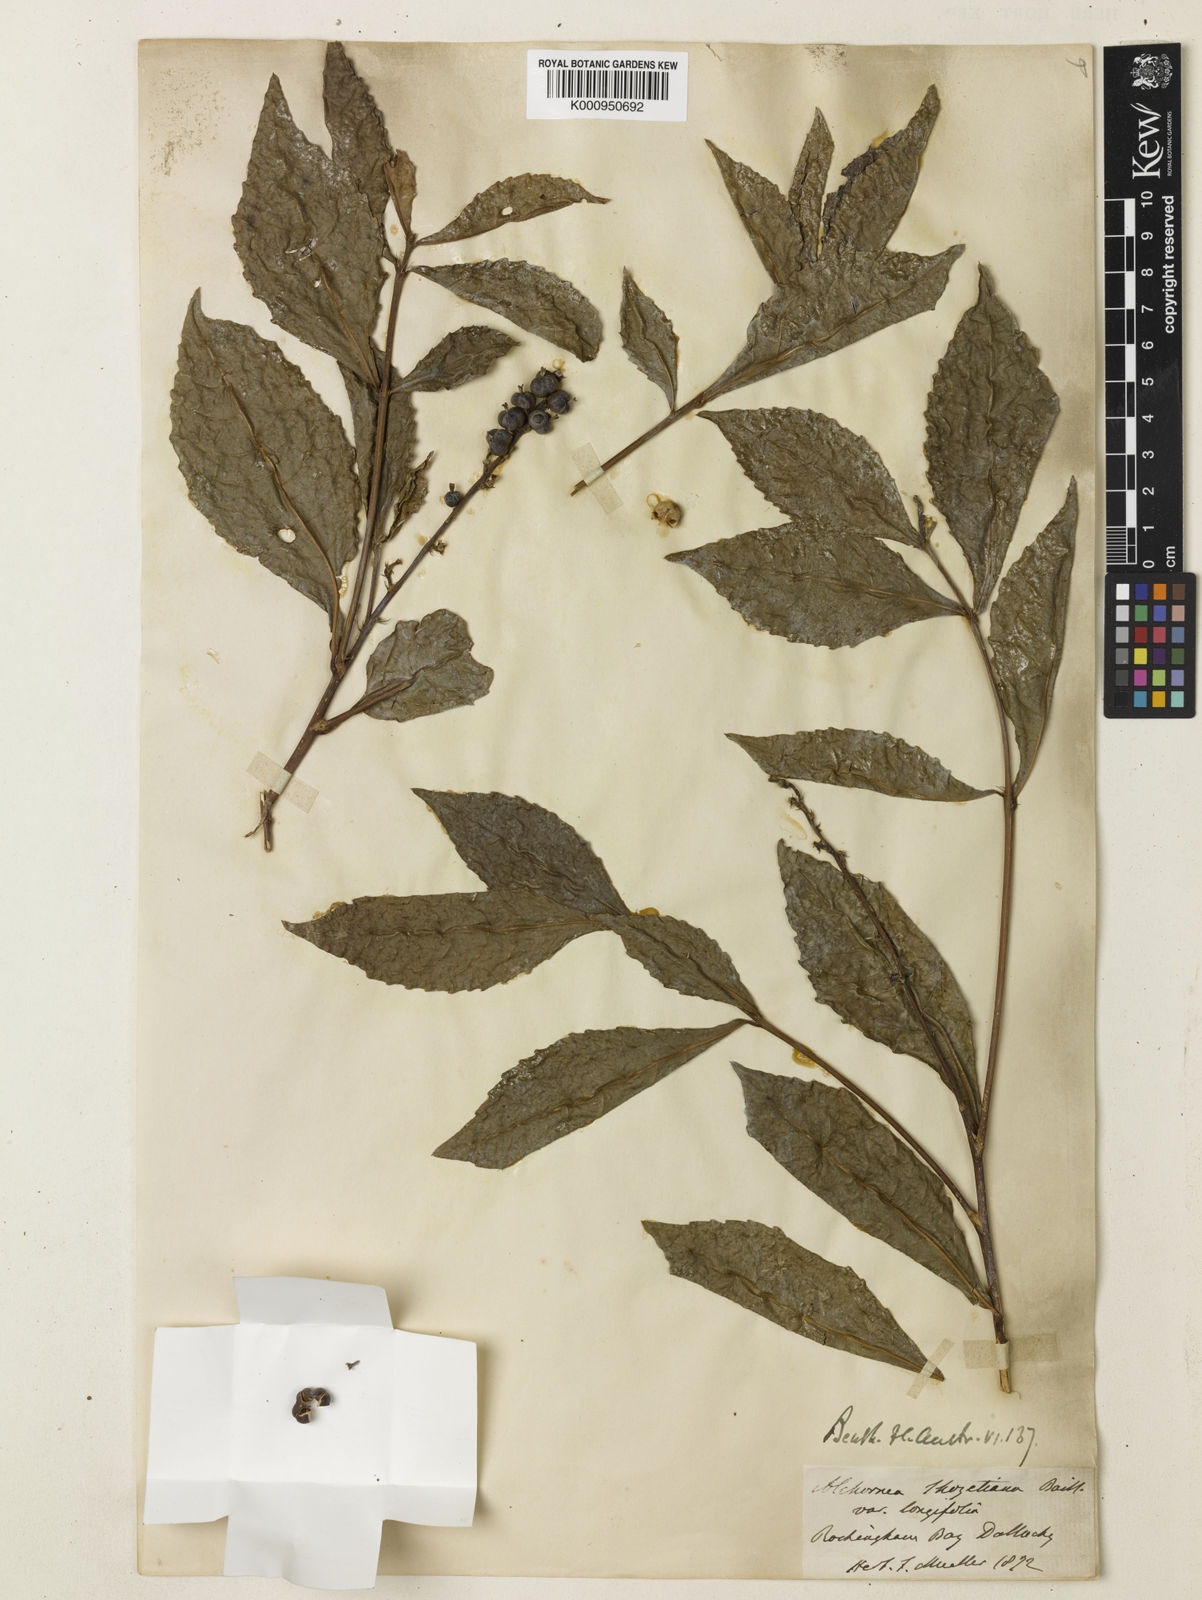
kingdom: Plantae
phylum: Tracheophyta
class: Magnoliopsida
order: Malpighiales
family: Euphorbiaceae
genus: Alchornea
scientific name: Alchornea ilicifolia
